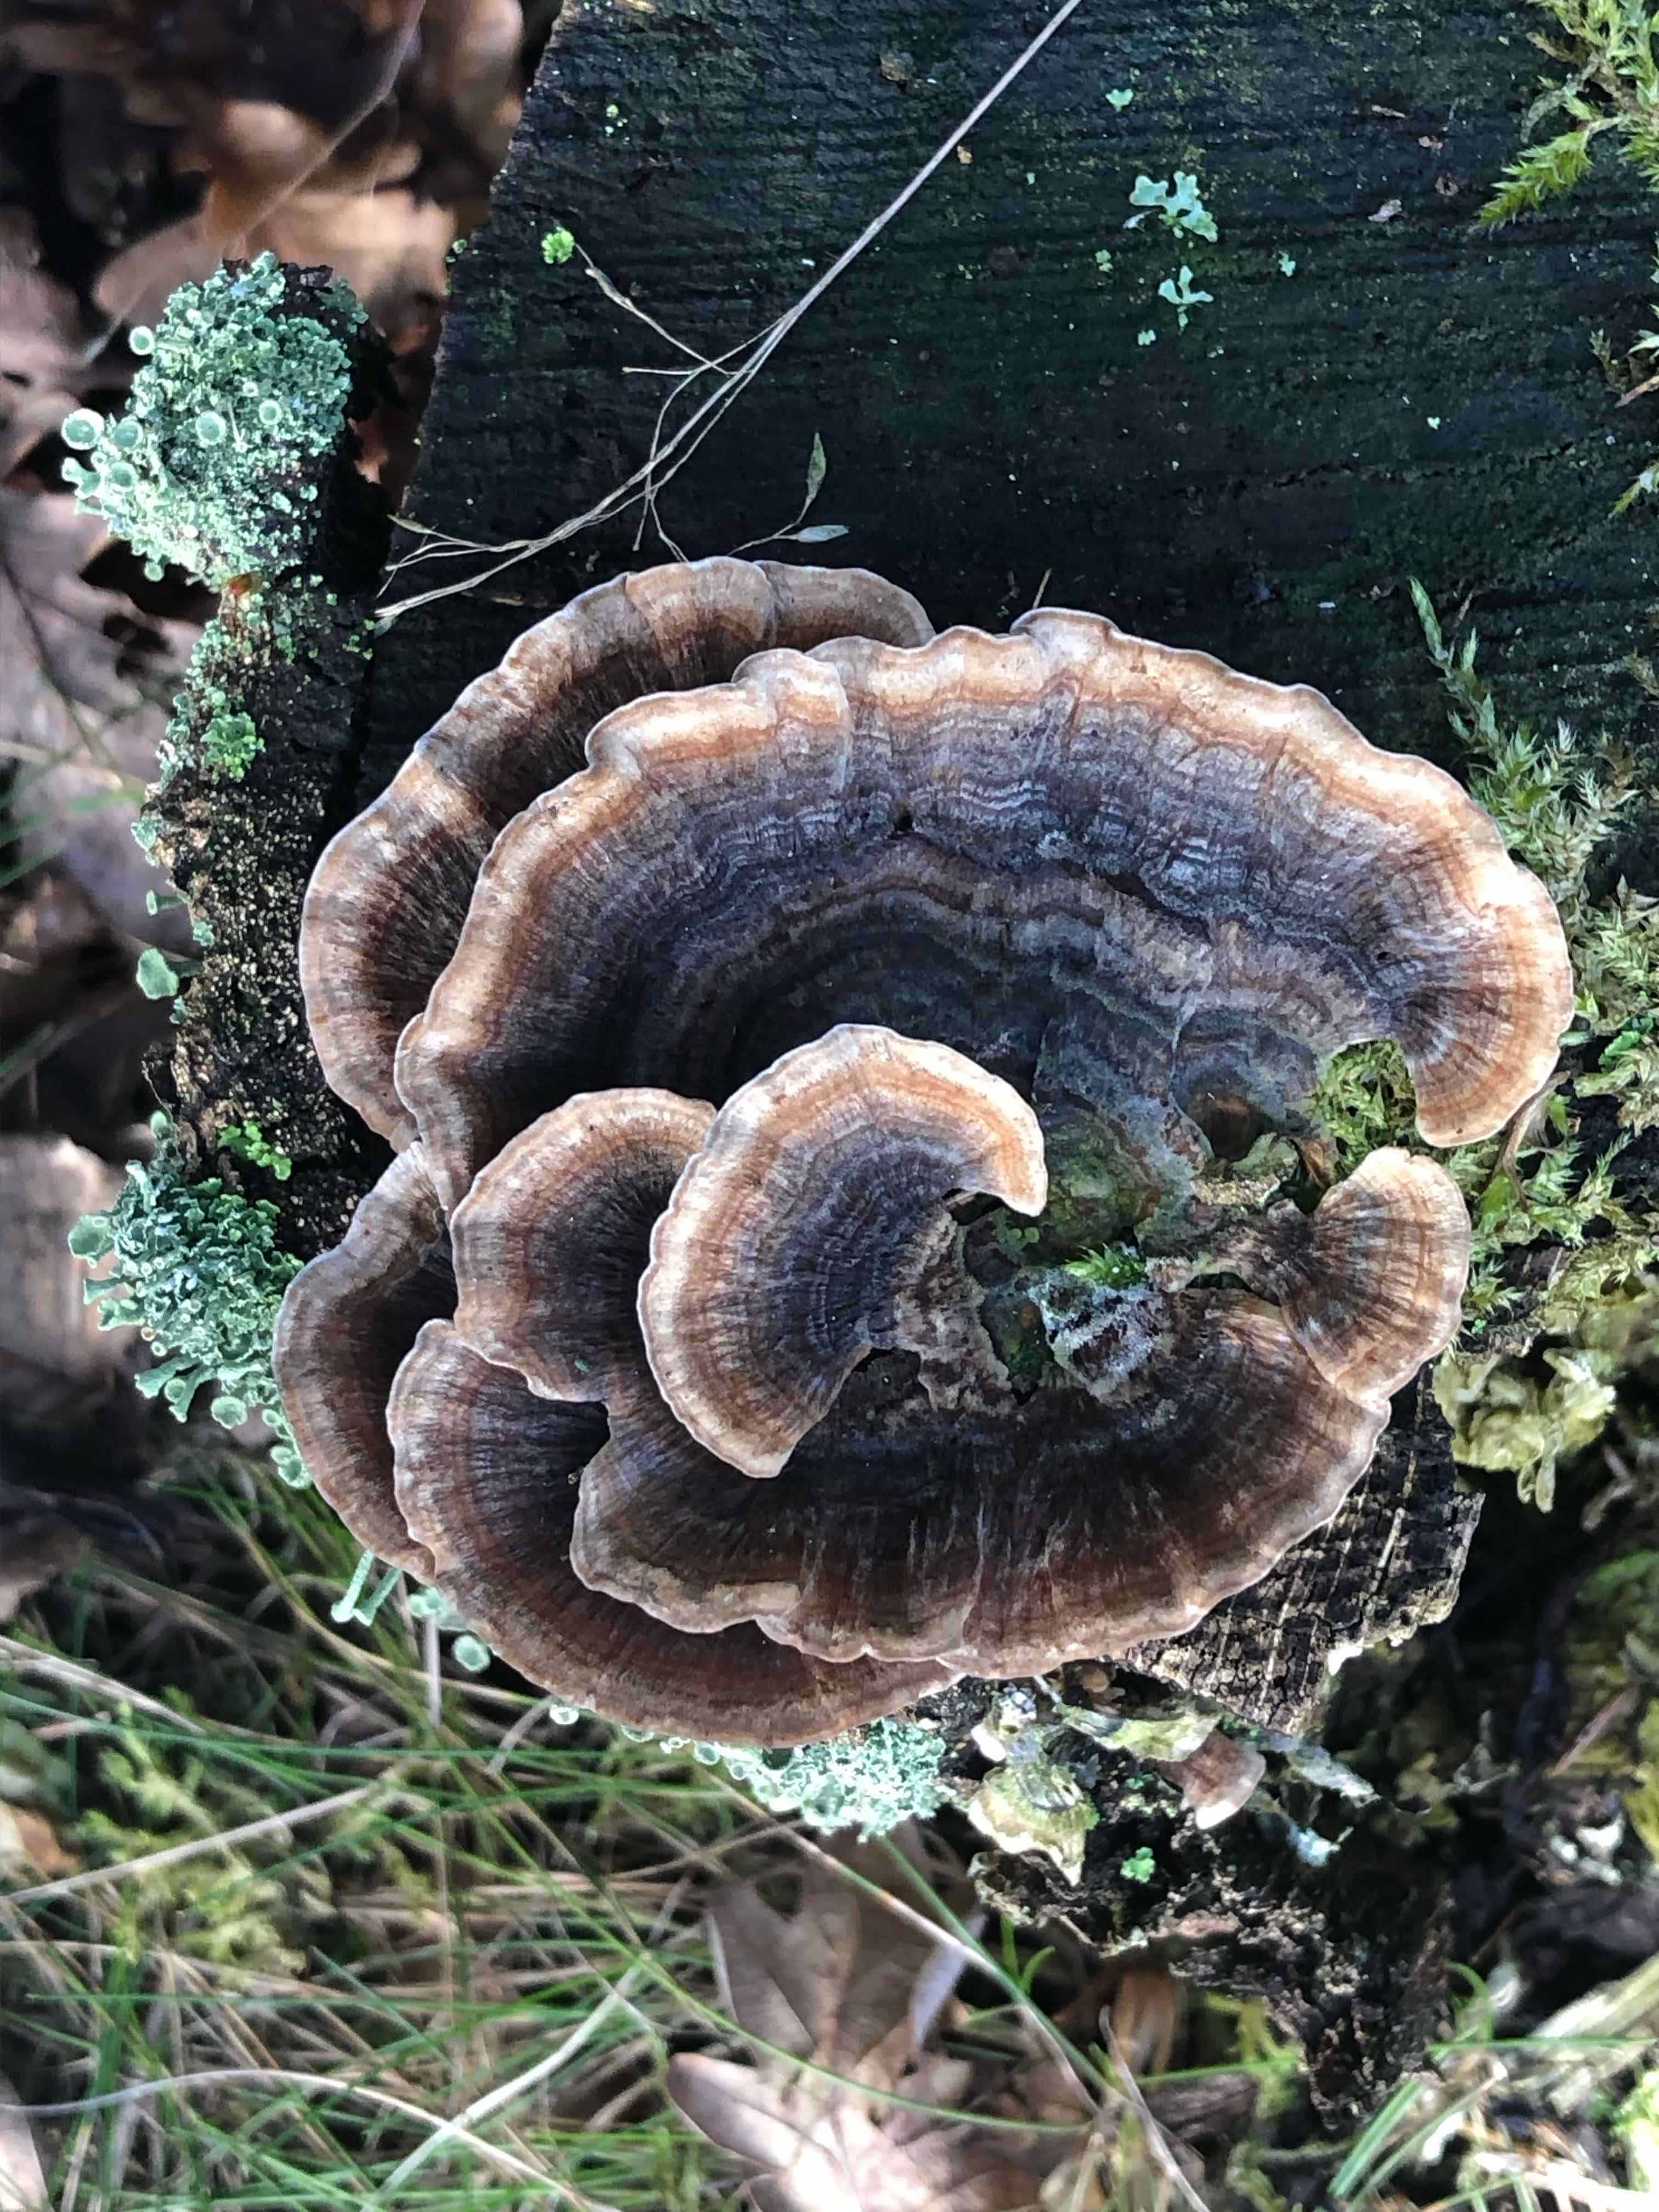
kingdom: Fungi
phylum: Basidiomycota
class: Agaricomycetes
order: Polyporales
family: Polyporaceae
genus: Trametes
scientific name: Trametes versicolor
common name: broget læderporesvamp
